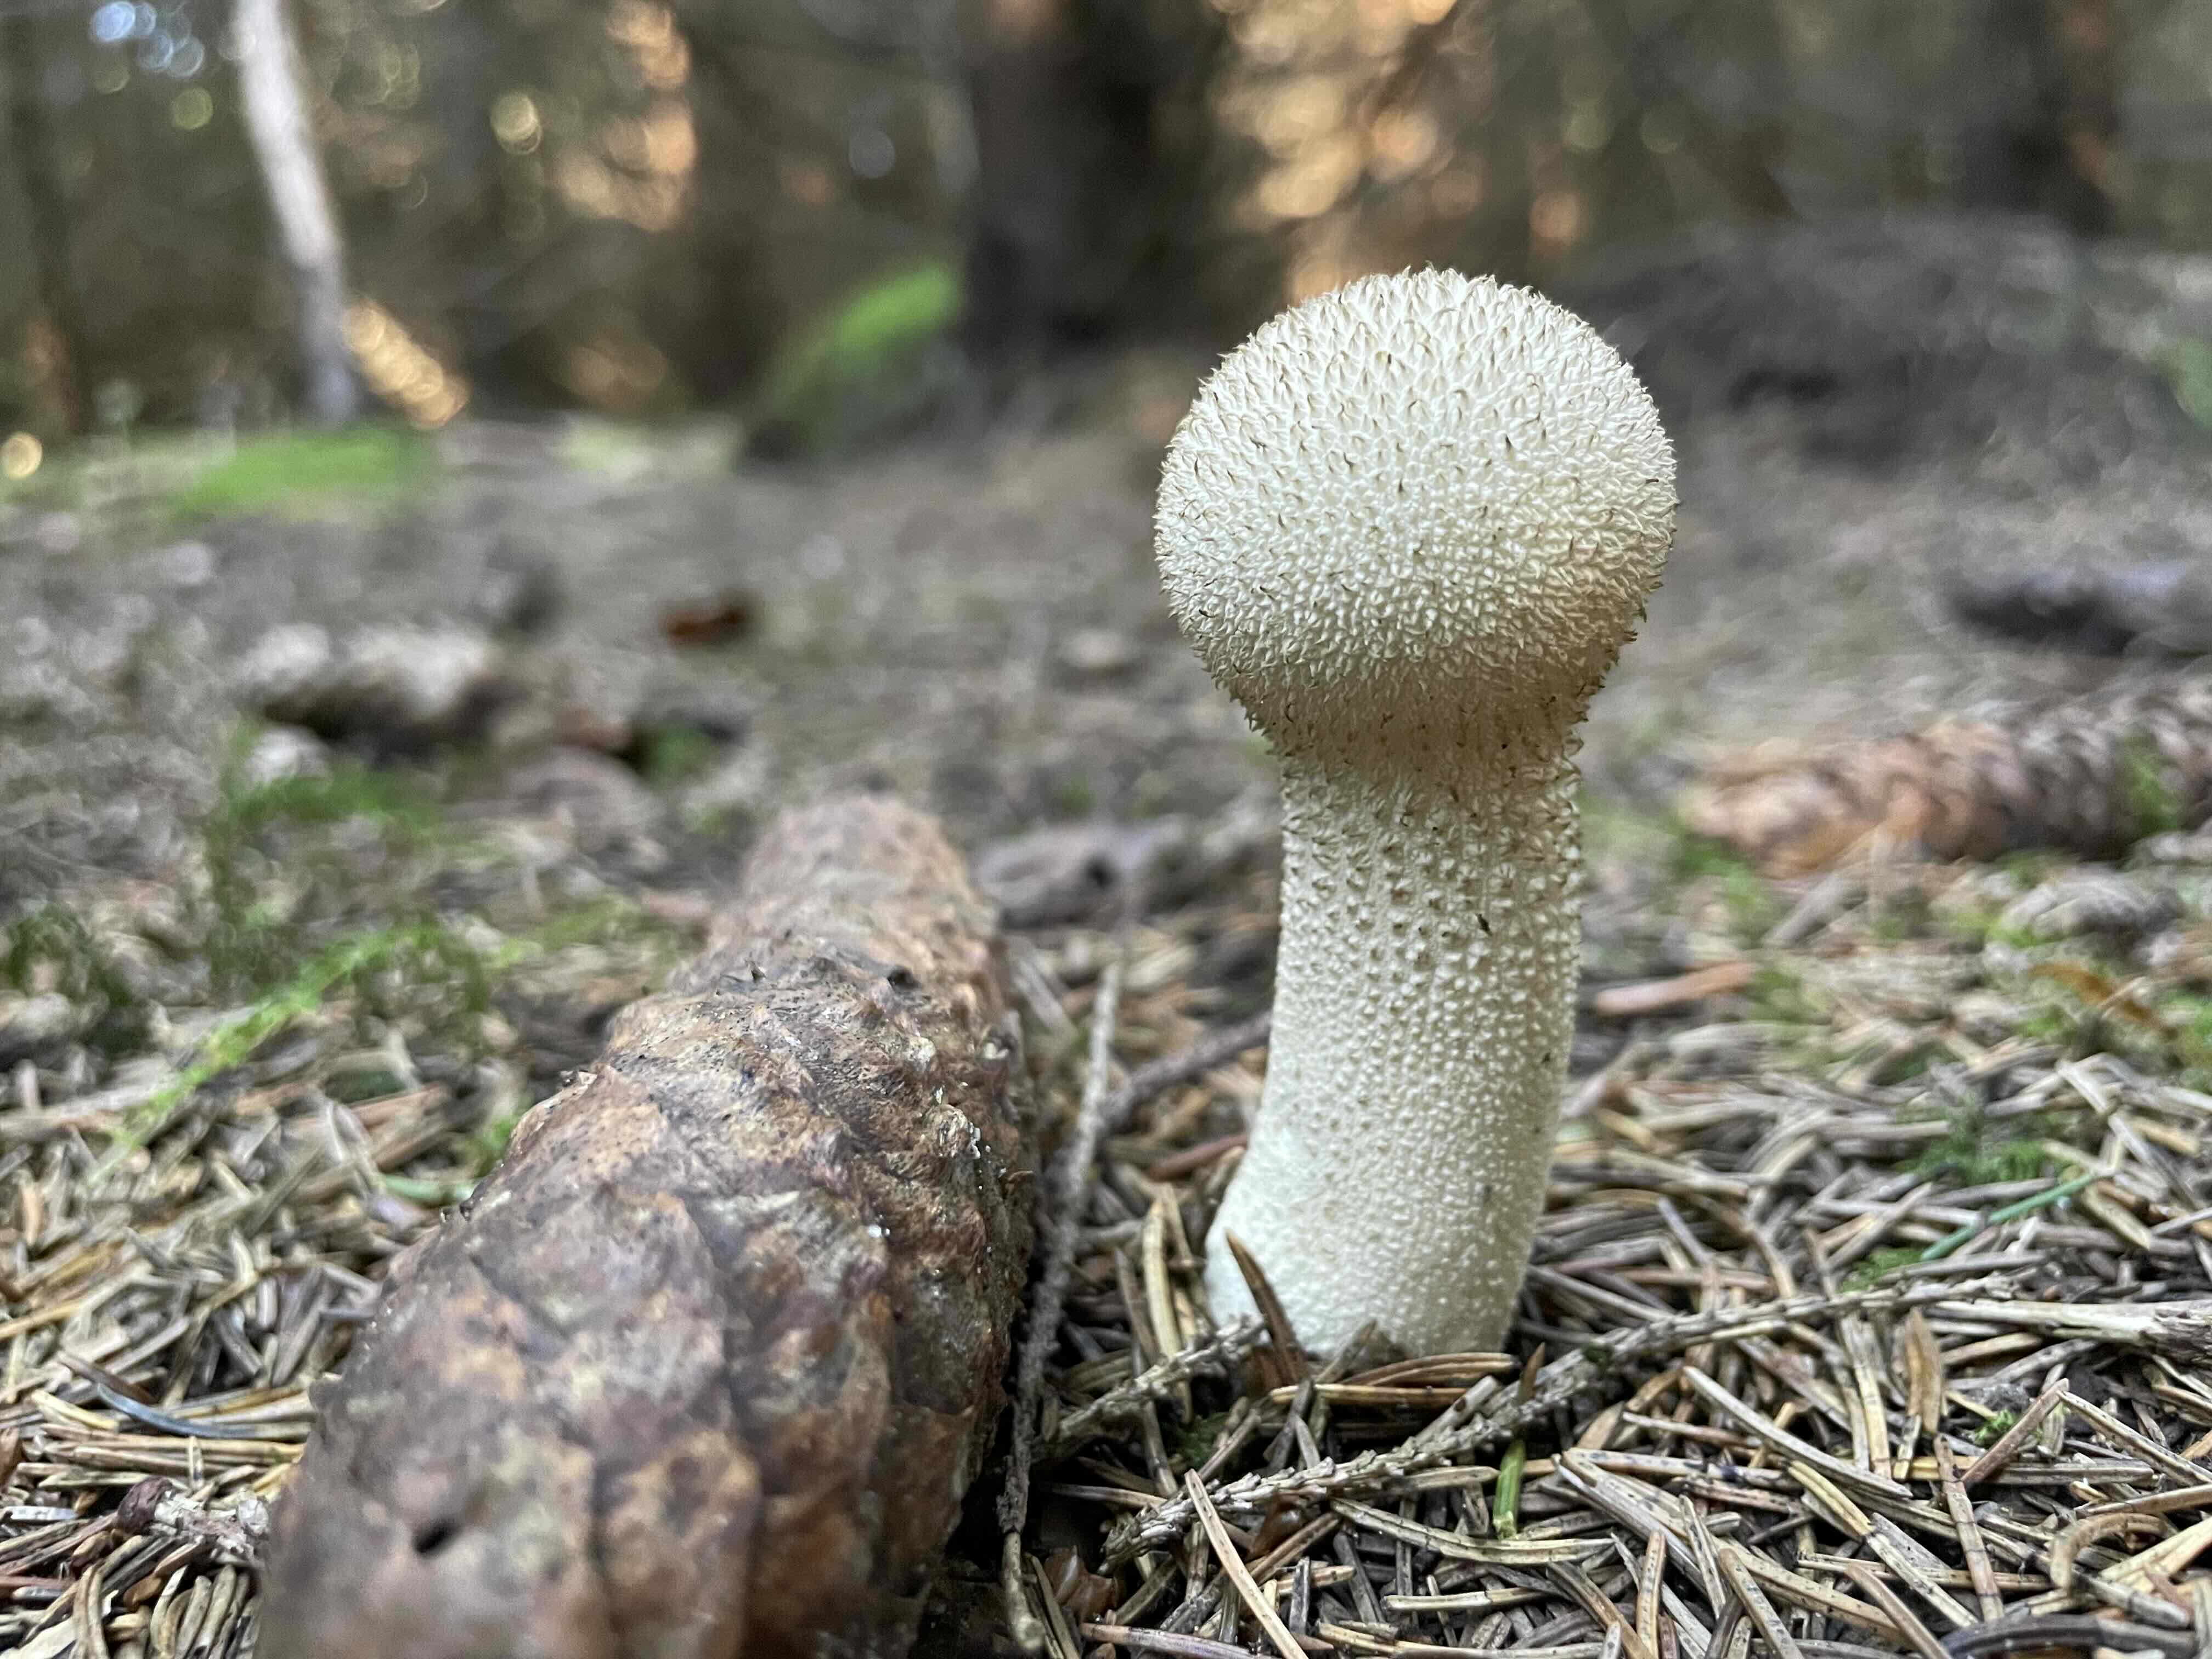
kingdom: Fungi
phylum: Basidiomycota
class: Agaricomycetes
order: Agaricales
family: Lycoperdaceae
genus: Lycoperdon
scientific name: Lycoperdon excipuliforme
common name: højstokket støvbold
